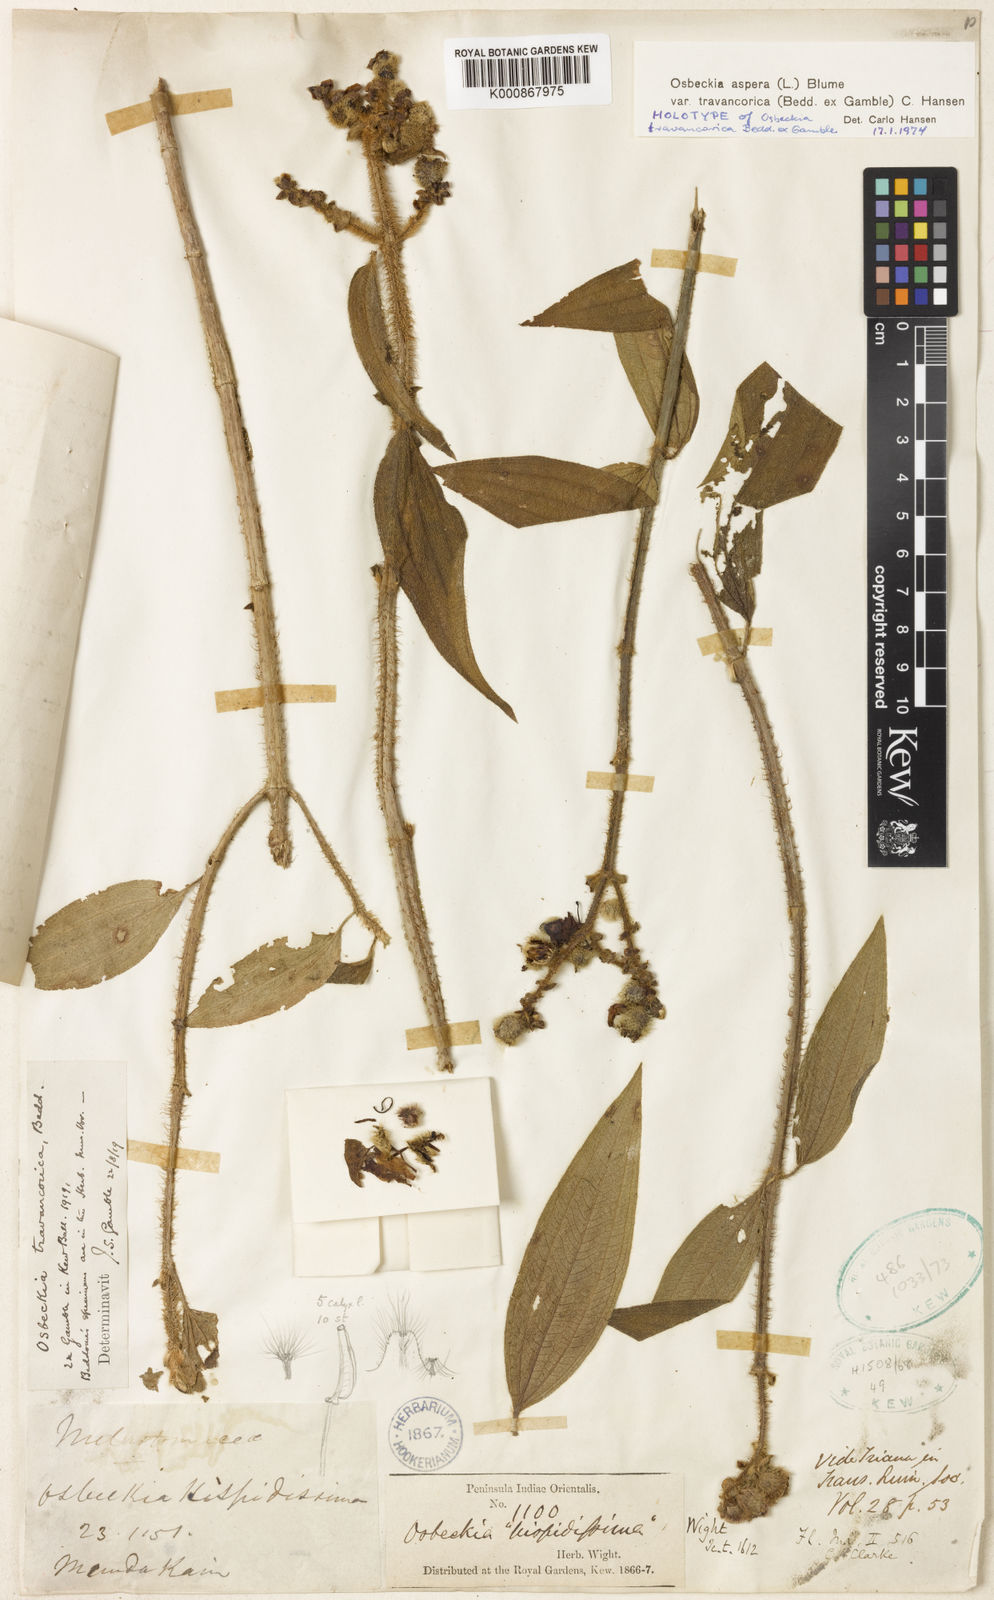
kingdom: Plantae
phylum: Tracheophyta
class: Magnoliopsida
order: Myrtales
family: Melastomataceae
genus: Osbeckia
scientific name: Osbeckia aspera
